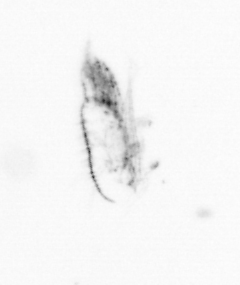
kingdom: Animalia
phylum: Arthropoda
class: Copepoda
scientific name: Copepoda
